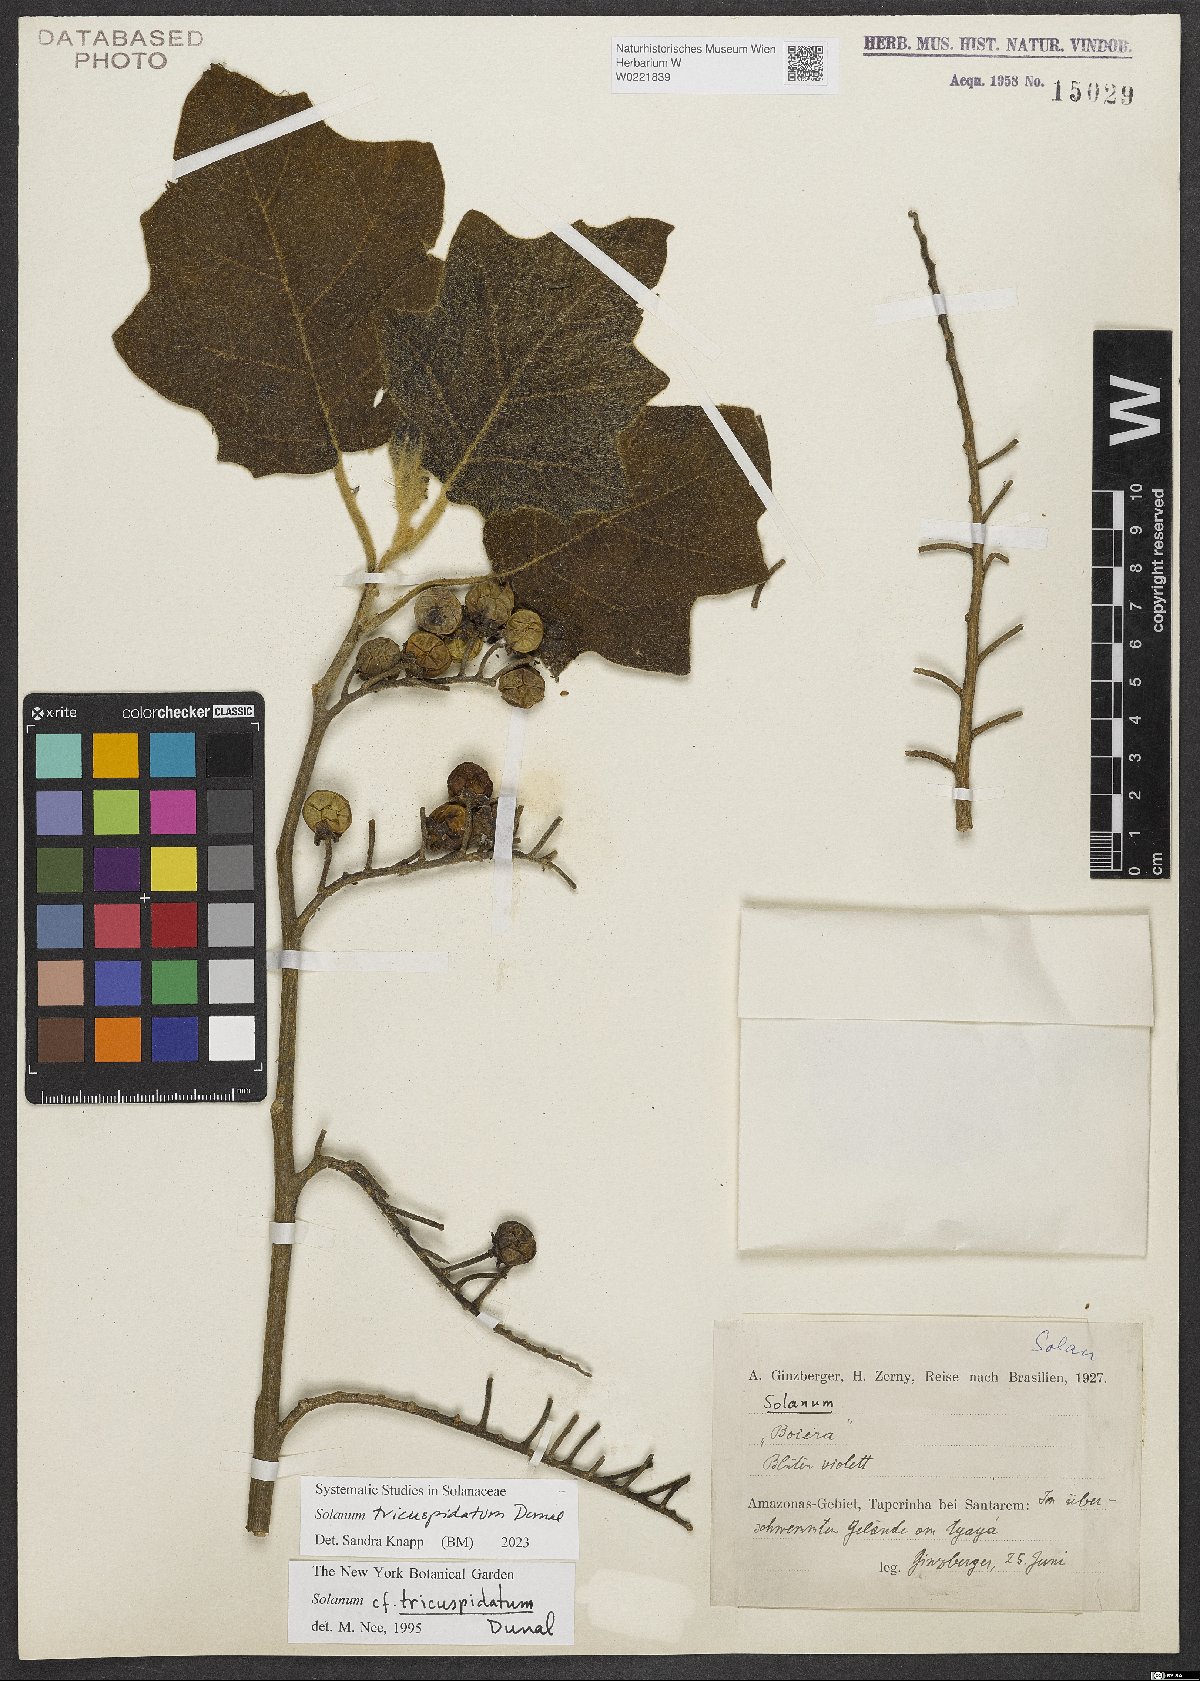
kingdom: Plantae
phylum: Tracheophyta
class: Magnoliopsida
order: Solanales
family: Solanaceae
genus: Solanum
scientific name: Solanum tricuspidatum
